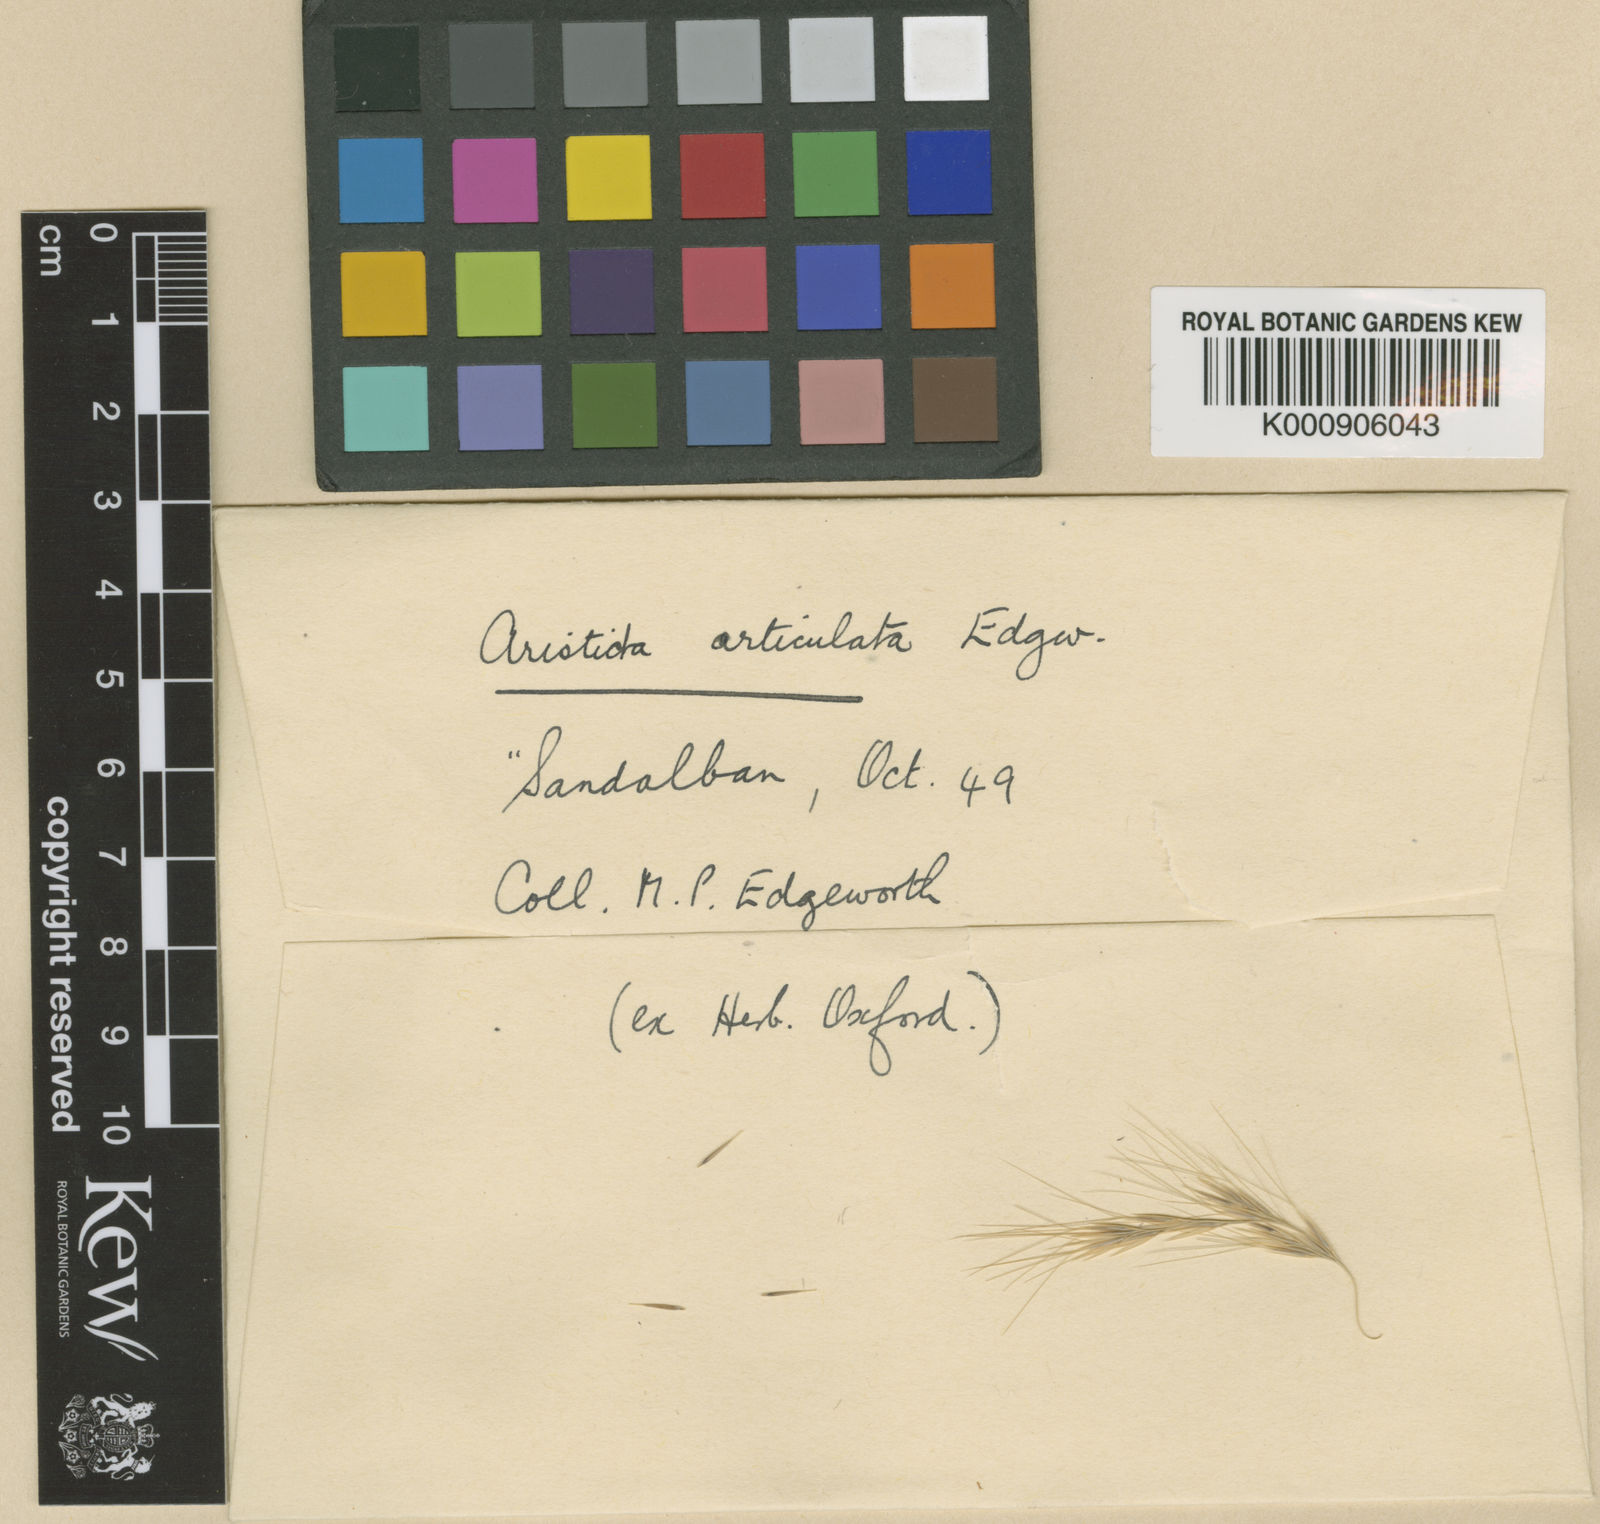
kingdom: Plantae
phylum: Tracheophyta
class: Liliopsida
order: Poales
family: Poaceae
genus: Aristida
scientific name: Aristida mutabilis
